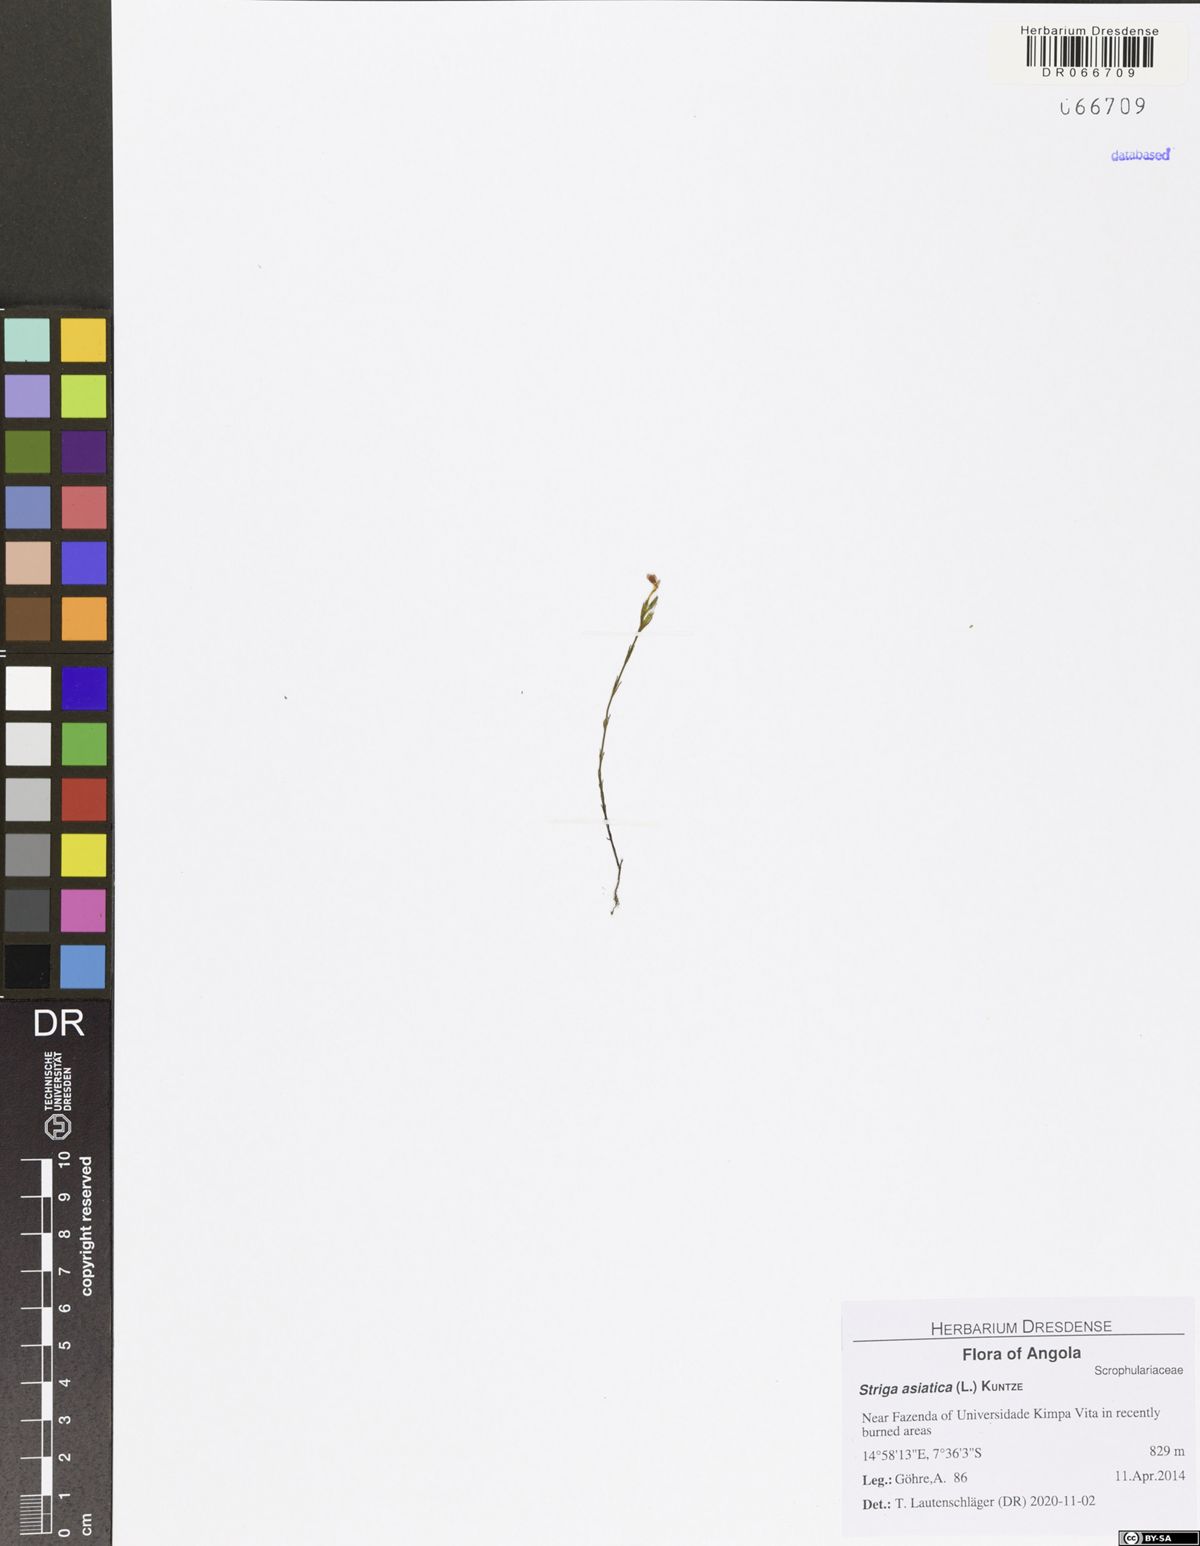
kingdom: Plantae
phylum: Tracheophyta
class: Magnoliopsida
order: Lamiales
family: Orobanchaceae
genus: Striga
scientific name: Striga asiatica
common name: Asiatic witchweed
